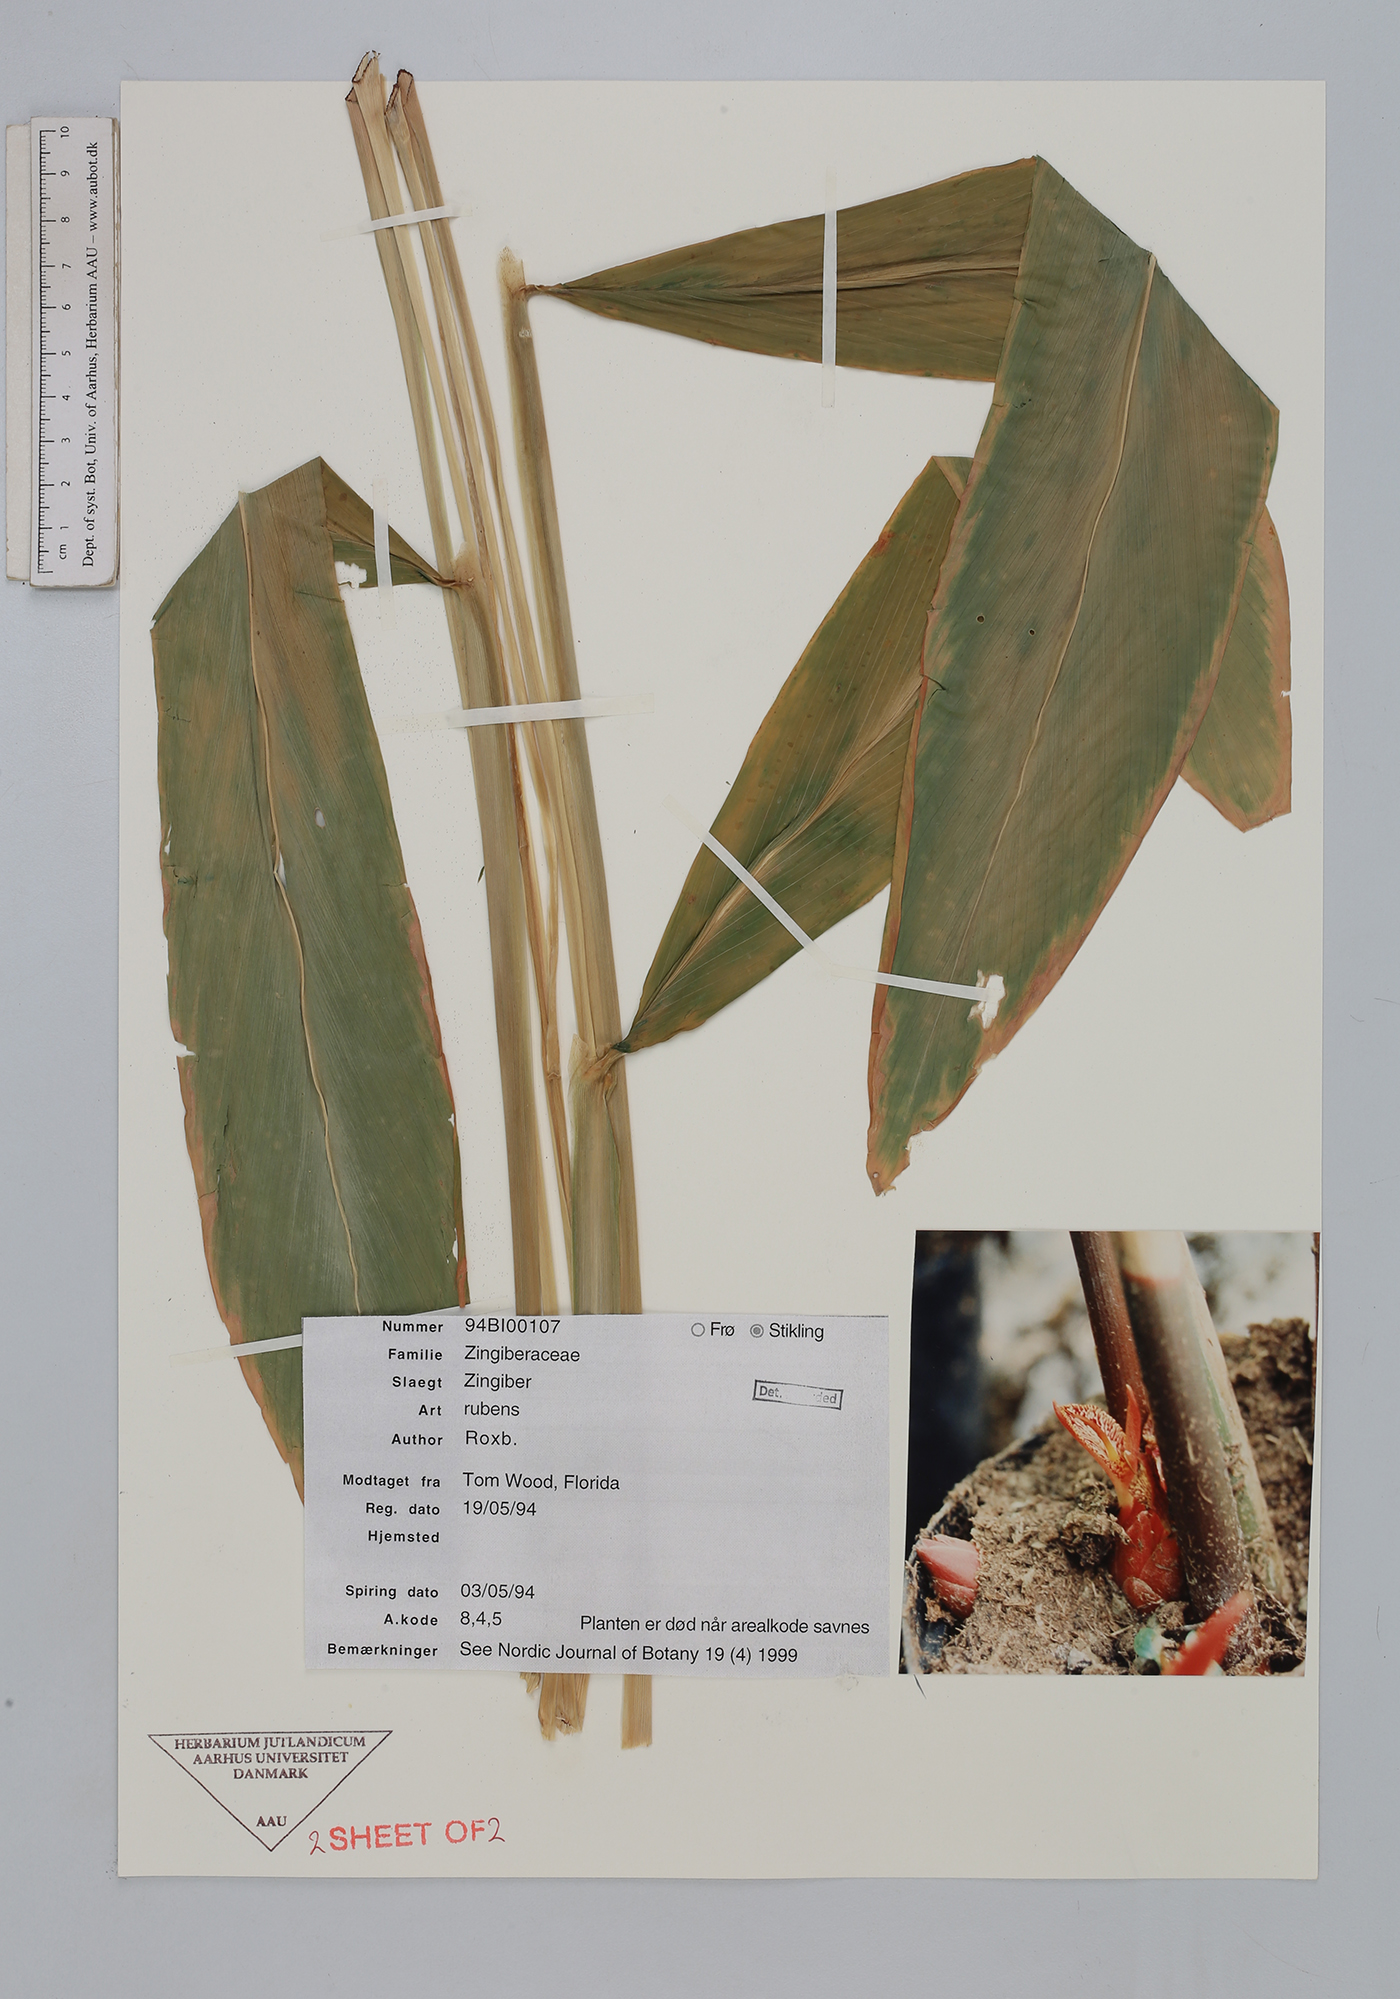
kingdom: Plantae
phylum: Tracheophyta
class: Liliopsida
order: Zingiberales
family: Zingiberaceae
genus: Zingiber
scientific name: Zingiber rubens
